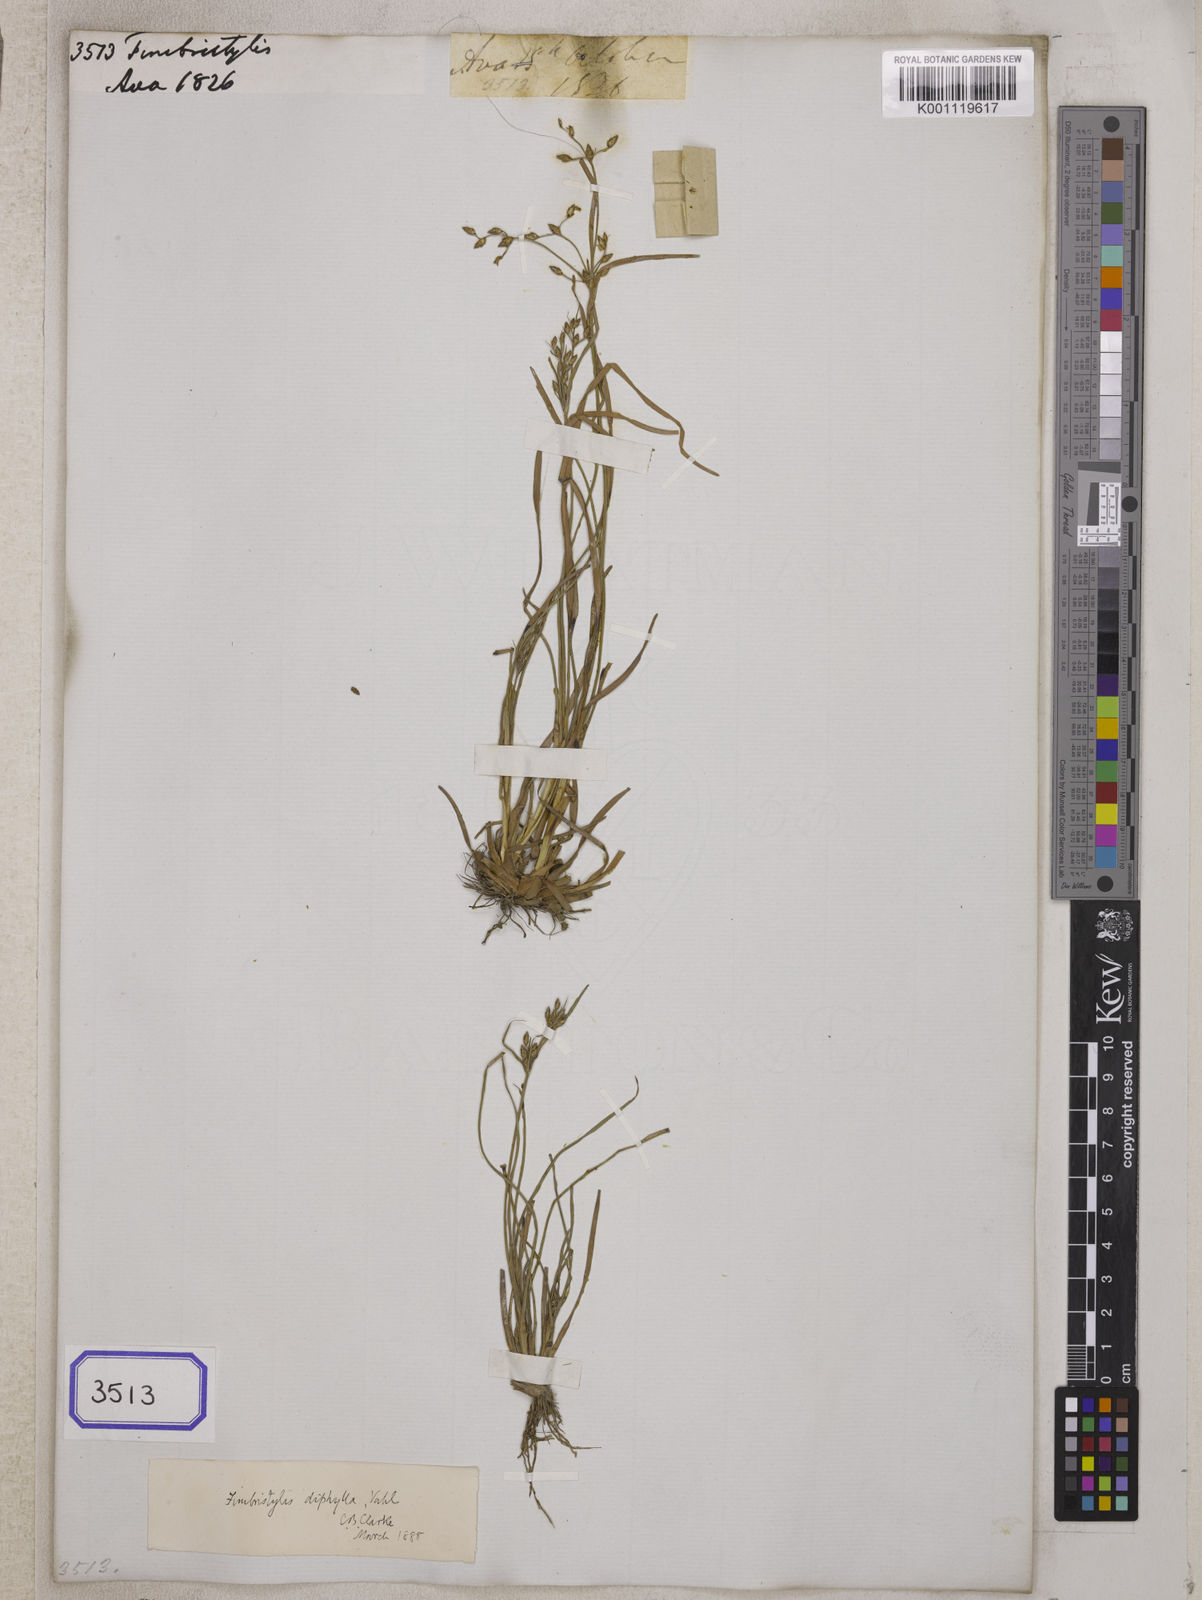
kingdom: Plantae
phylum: Tracheophyta
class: Liliopsida
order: Poales
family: Cyperaceae
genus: Fimbristylis
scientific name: Fimbristylis
